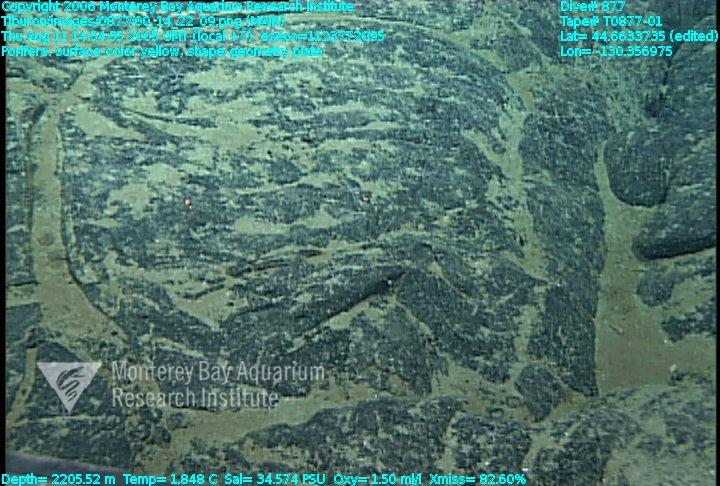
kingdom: Animalia
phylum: Porifera
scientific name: Porifera
